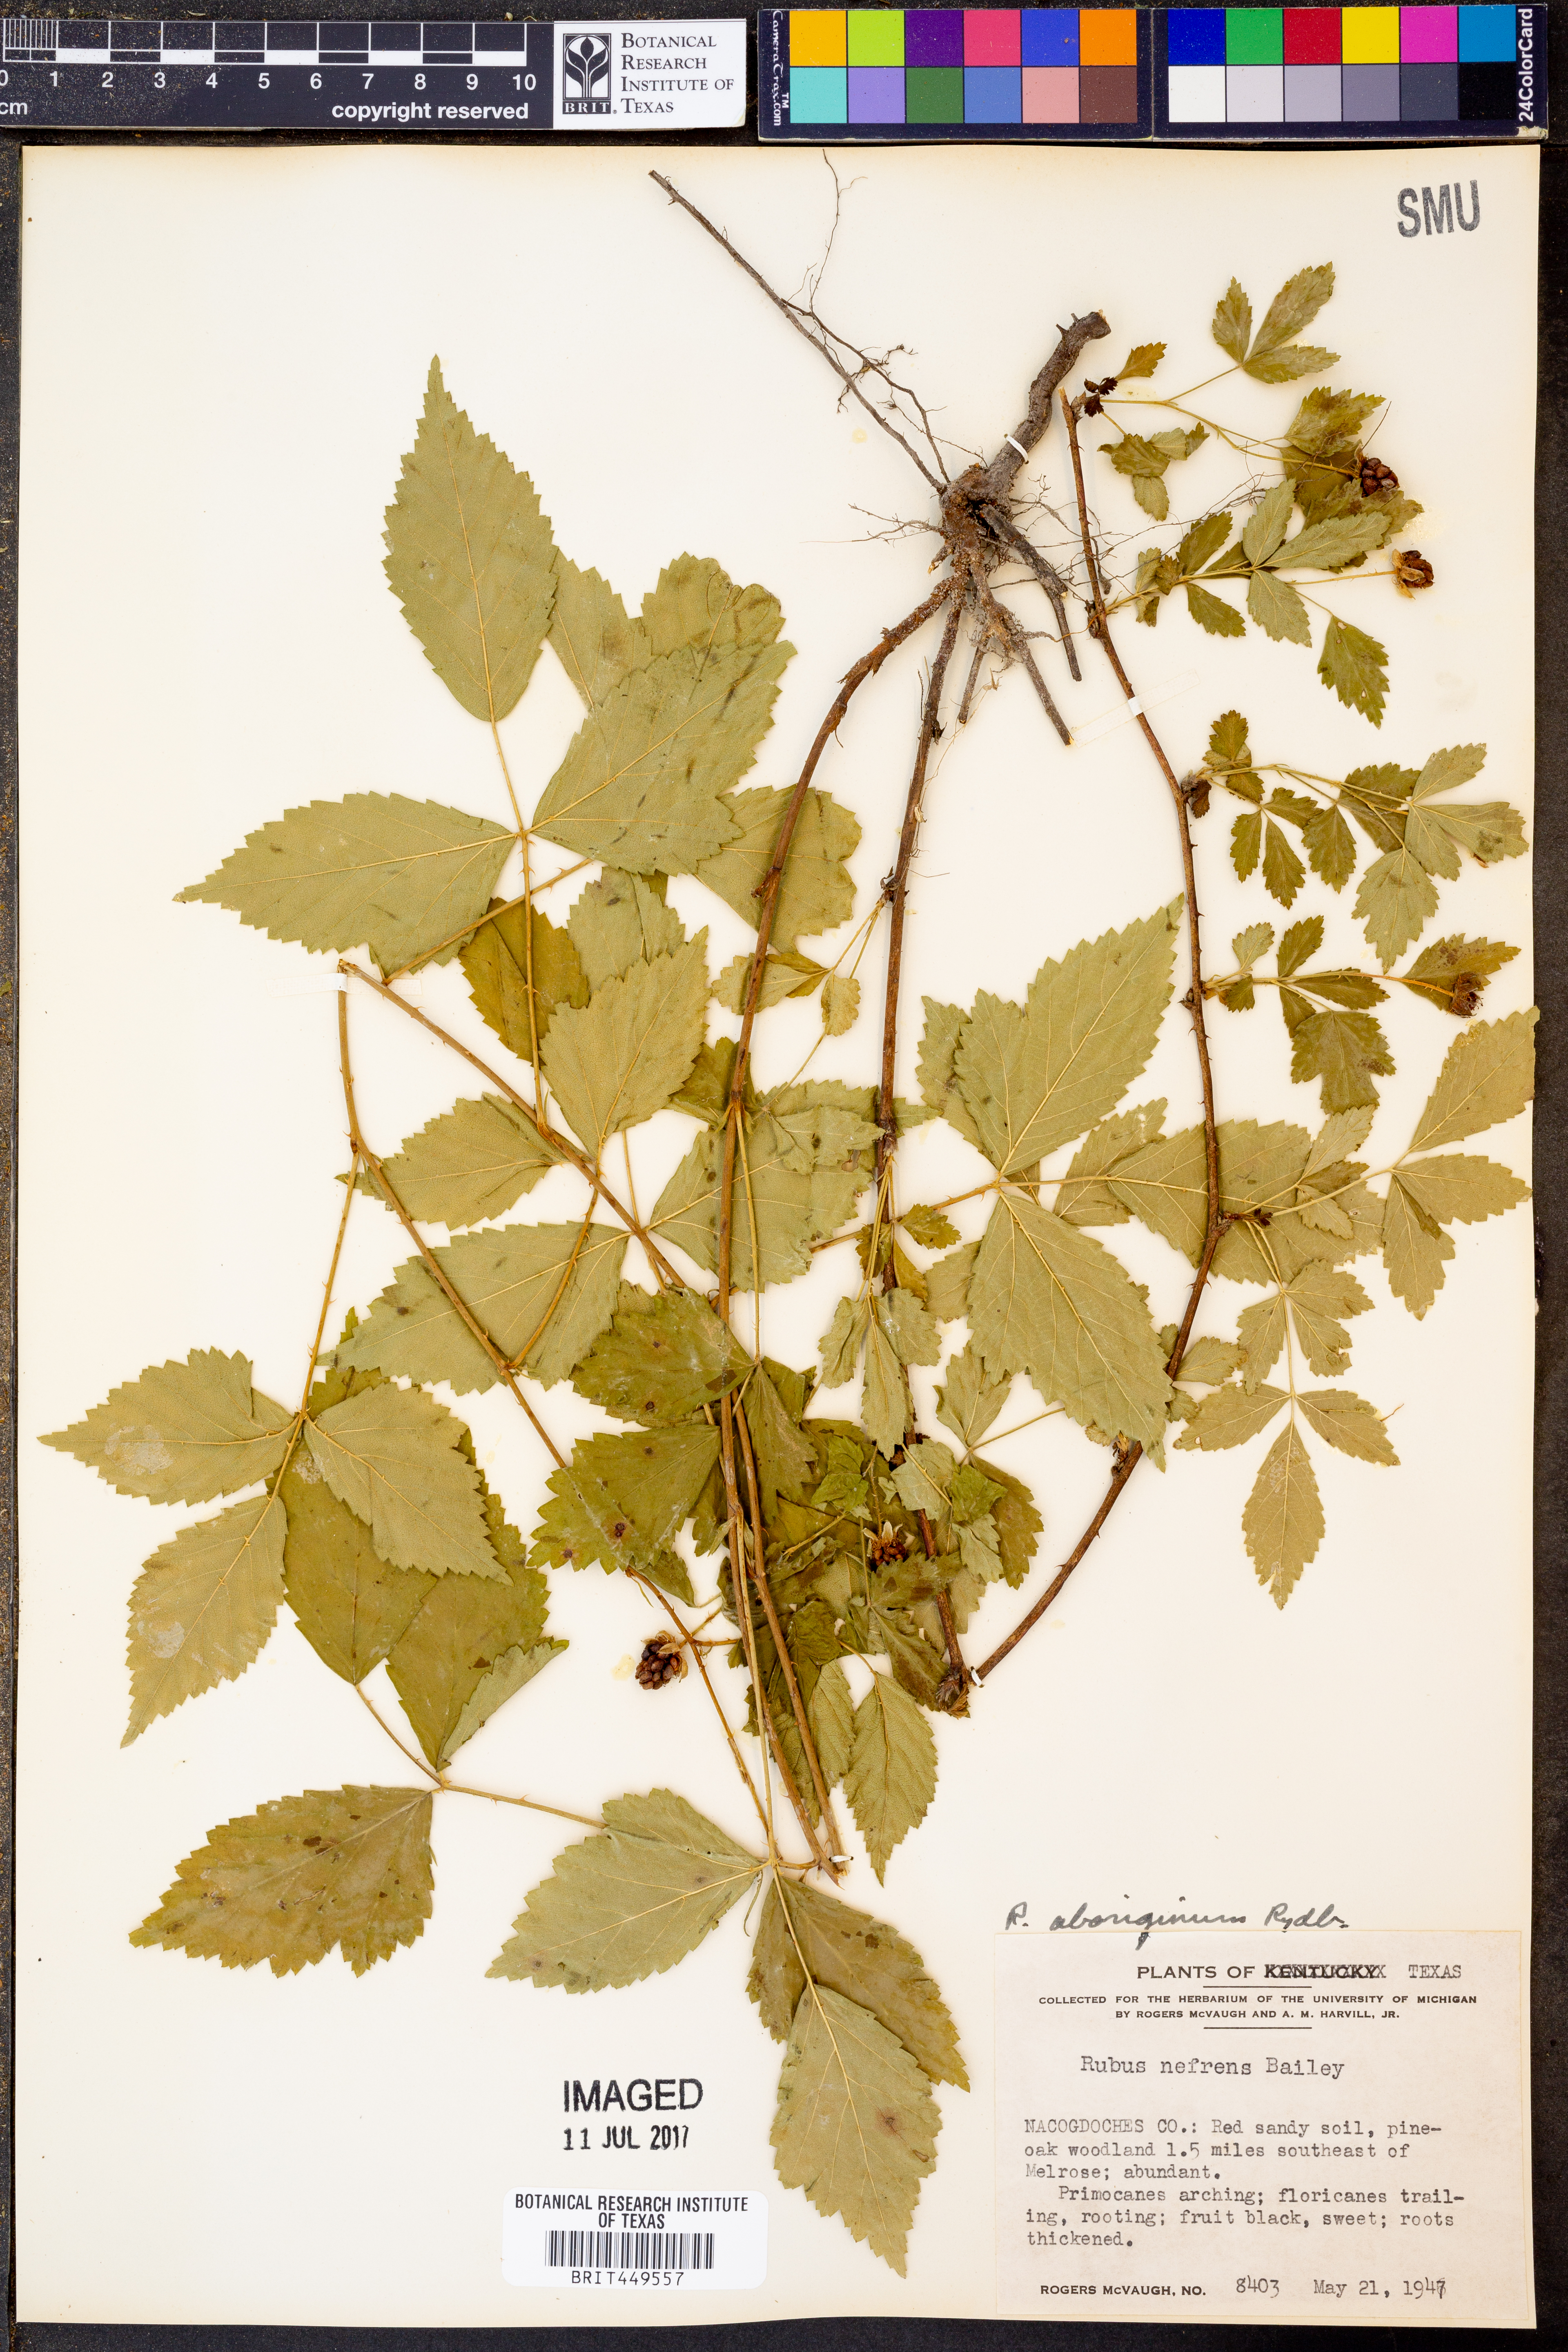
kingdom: Plantae
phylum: Tracheophyta
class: Magnoliopsida
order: Rosales
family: Rosaceae
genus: Rubus
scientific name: Rubus nefrens
